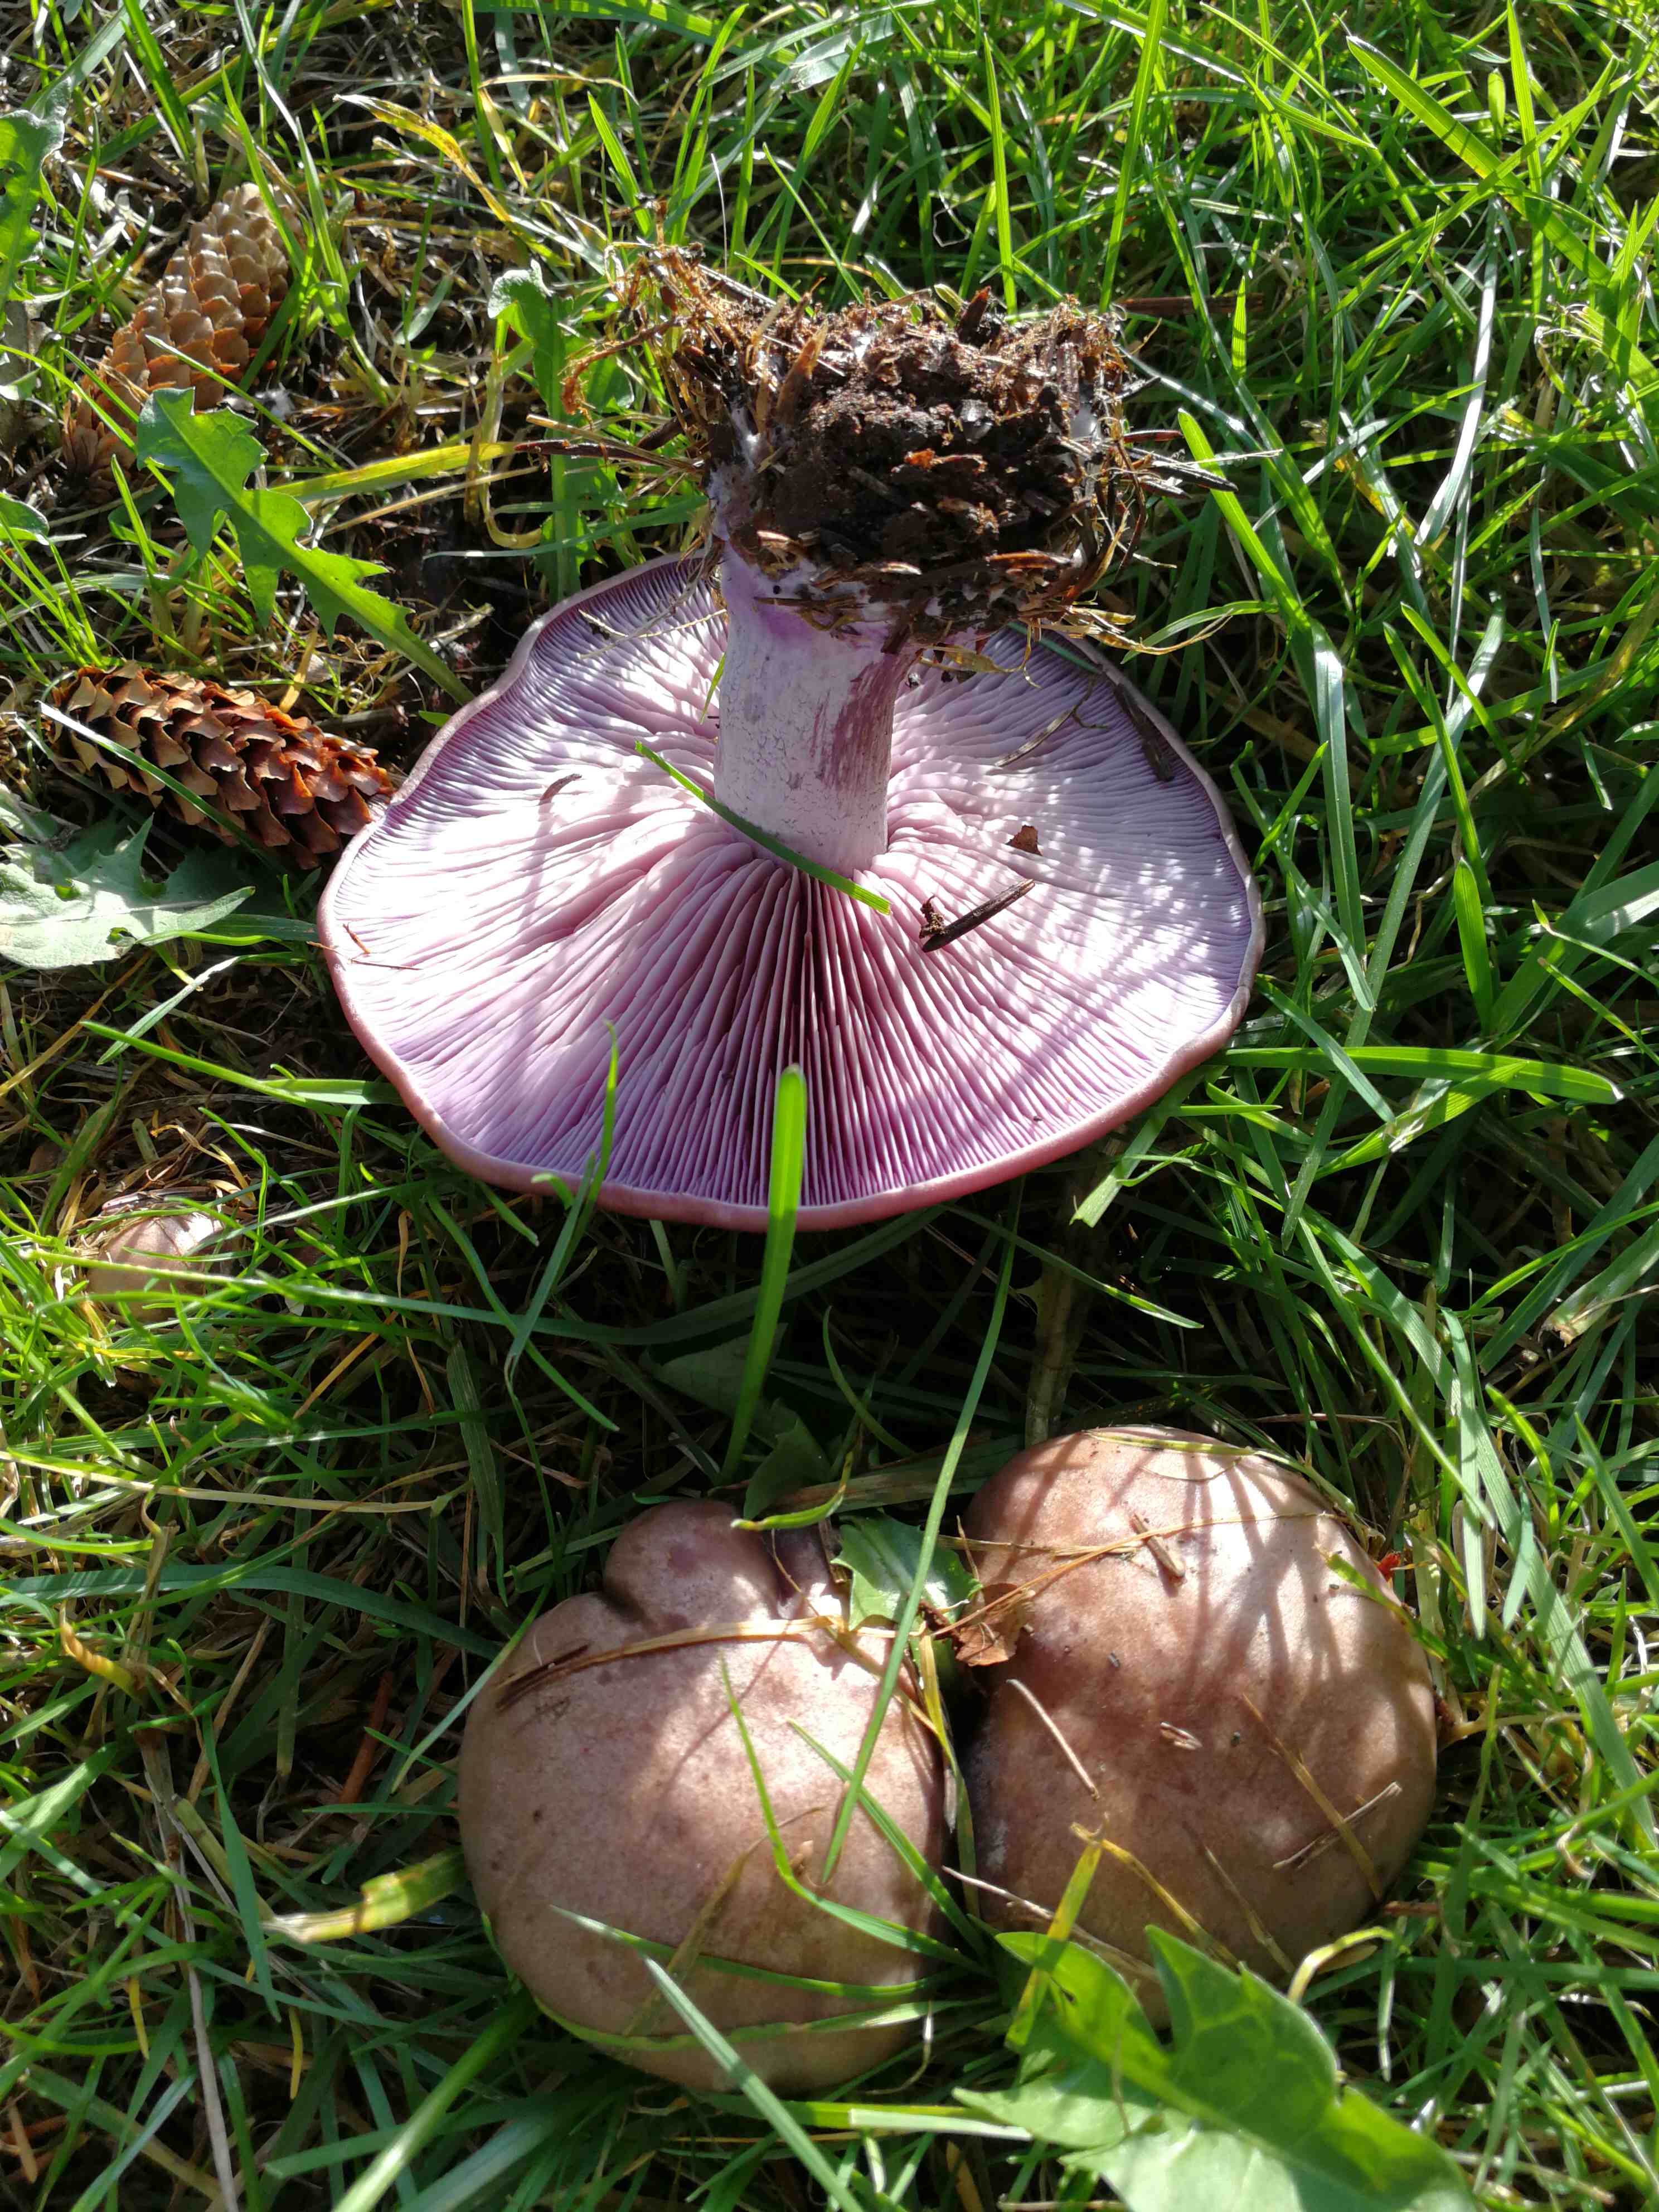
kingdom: Fungi
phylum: Basidiomycota
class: Agaricomycetes
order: Agaricales
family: Tricholomataceae
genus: Lepista
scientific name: Lepista nuda
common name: violet hekseringshat
